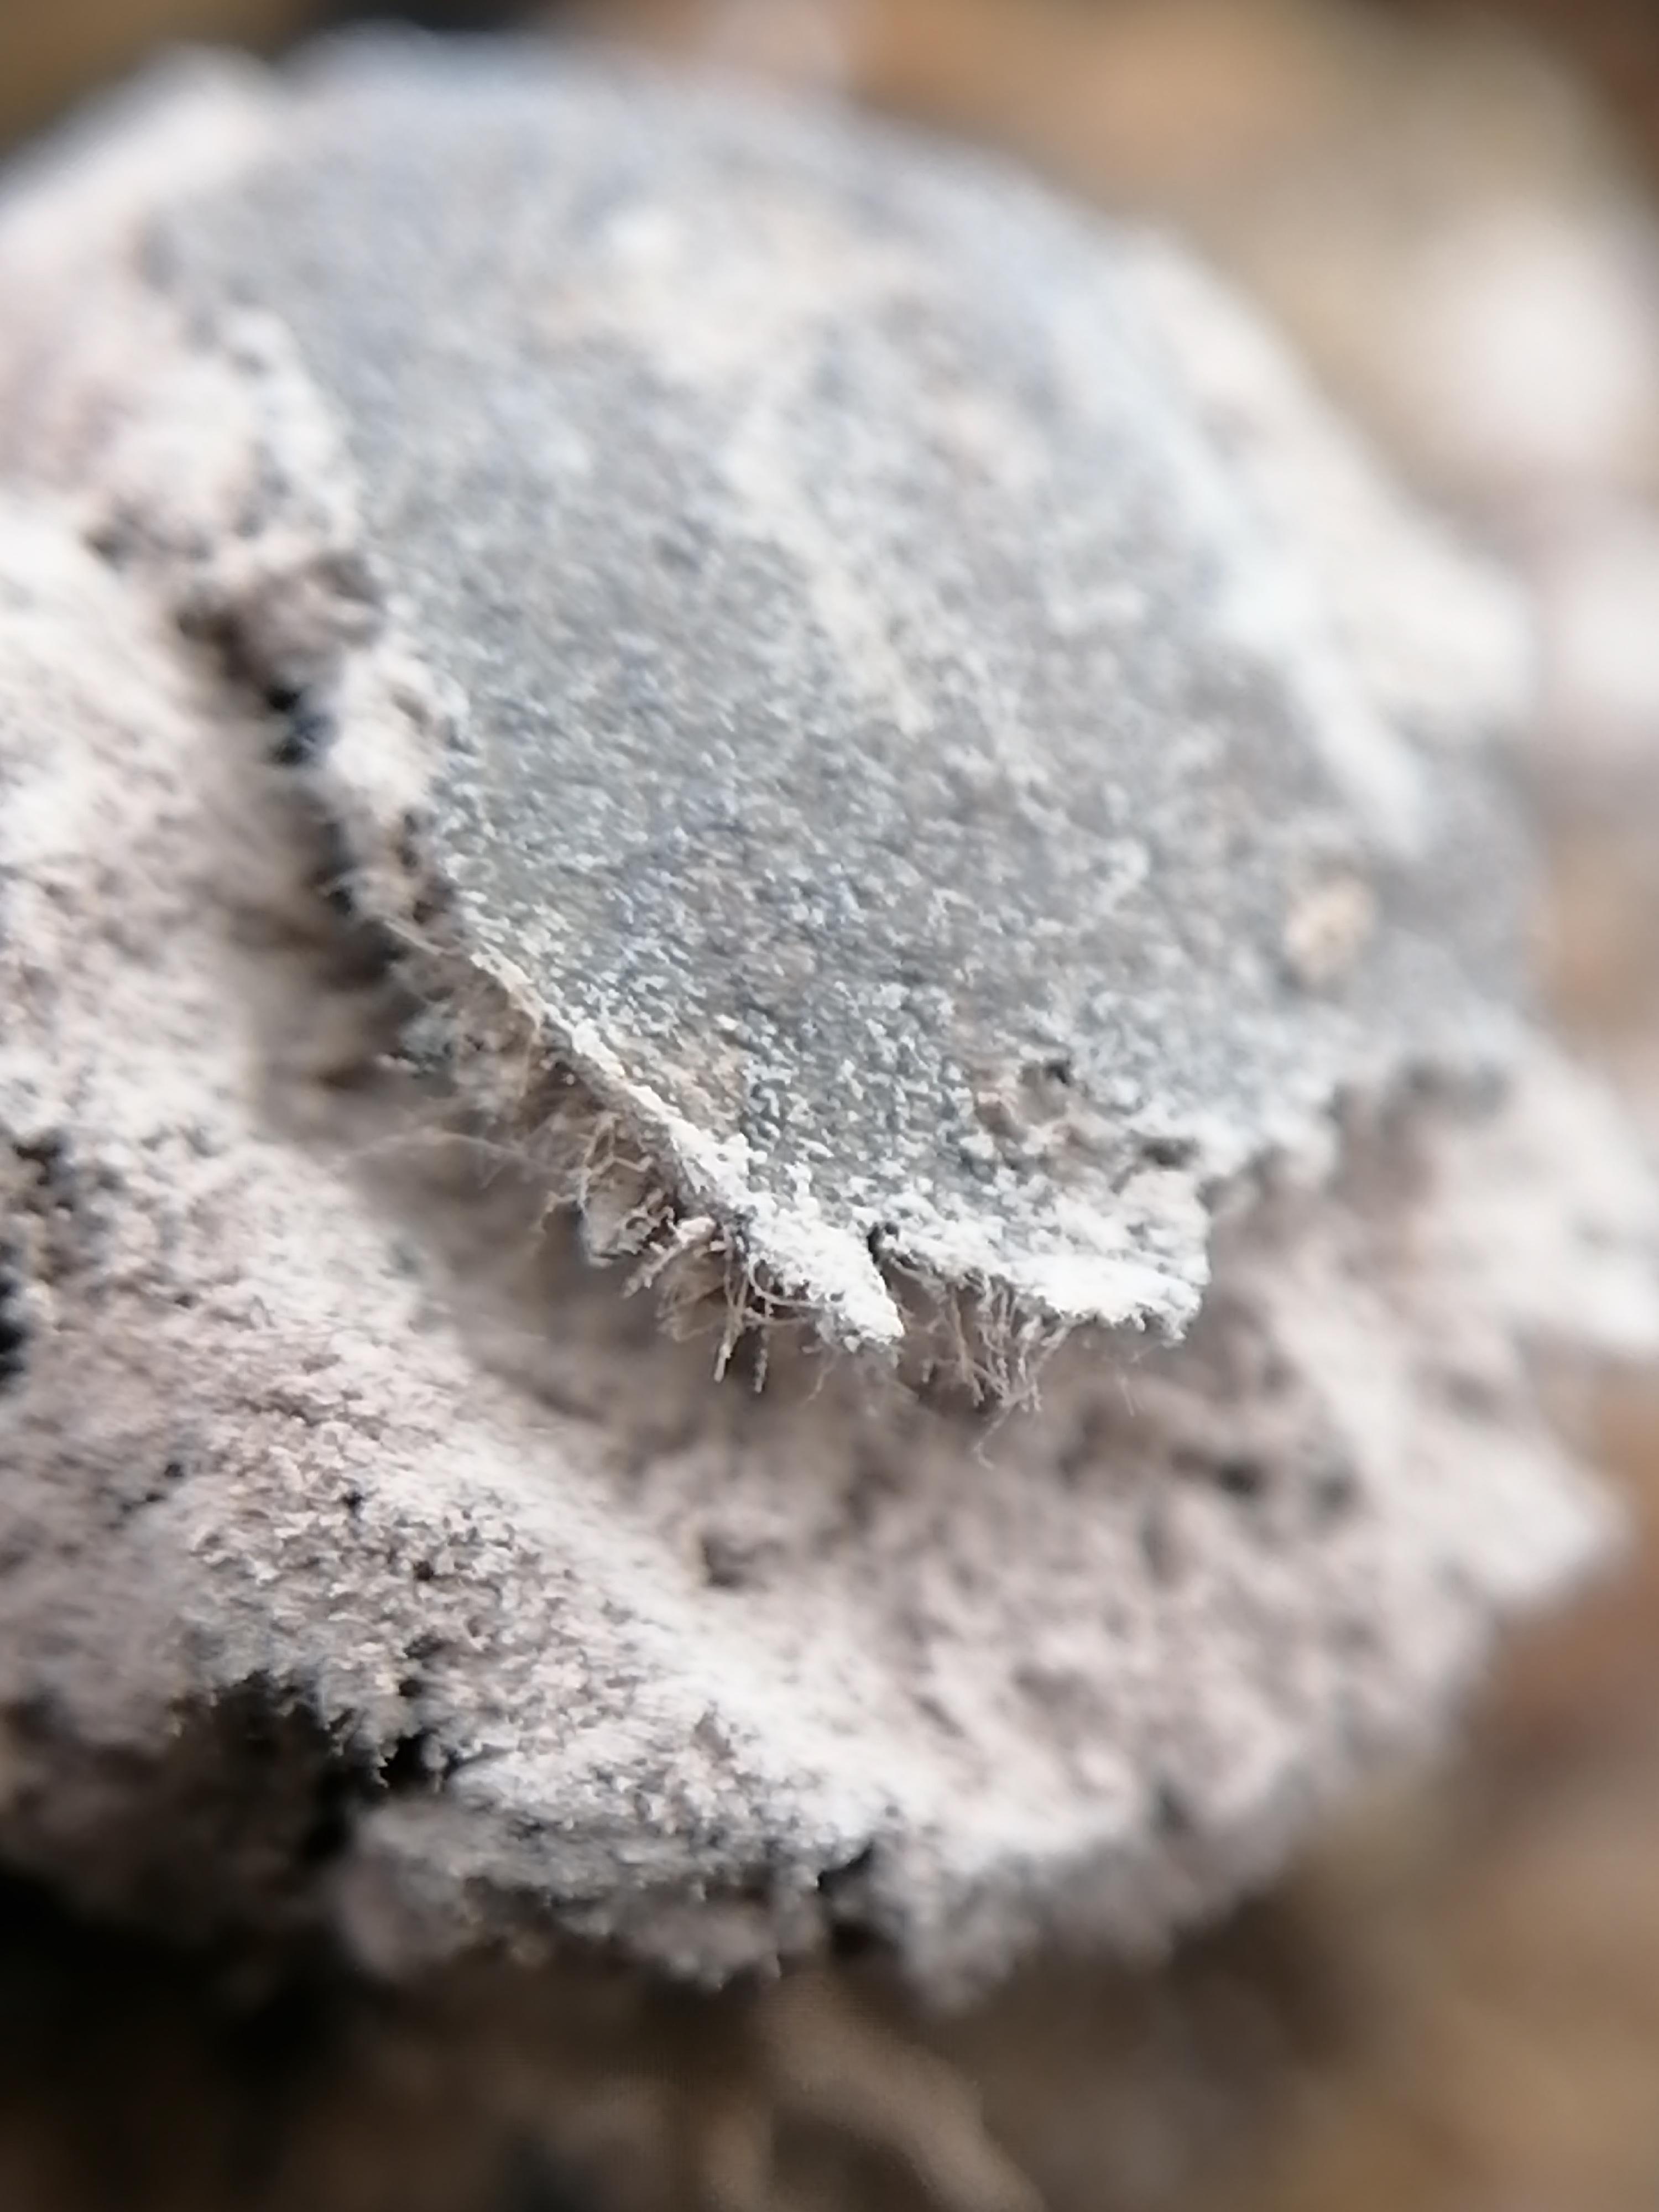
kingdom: Protozoa
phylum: Mycetozoa
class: Myxomycetes
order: Cribrariales
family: Tubiferaceae
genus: Lycogala
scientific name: Lycogala epidendrum
